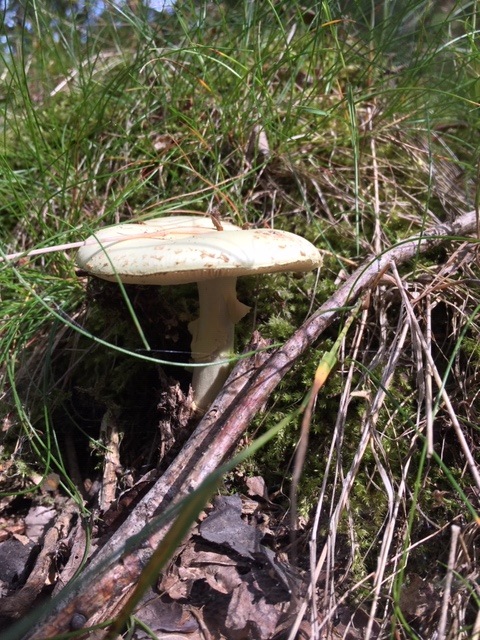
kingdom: Fungi
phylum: Basidiomycota
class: Agaricomycetes
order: Agaricales
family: Amanitaceae
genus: Amanita
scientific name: Amanita citrina
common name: kugleknoldet fluesvamp
